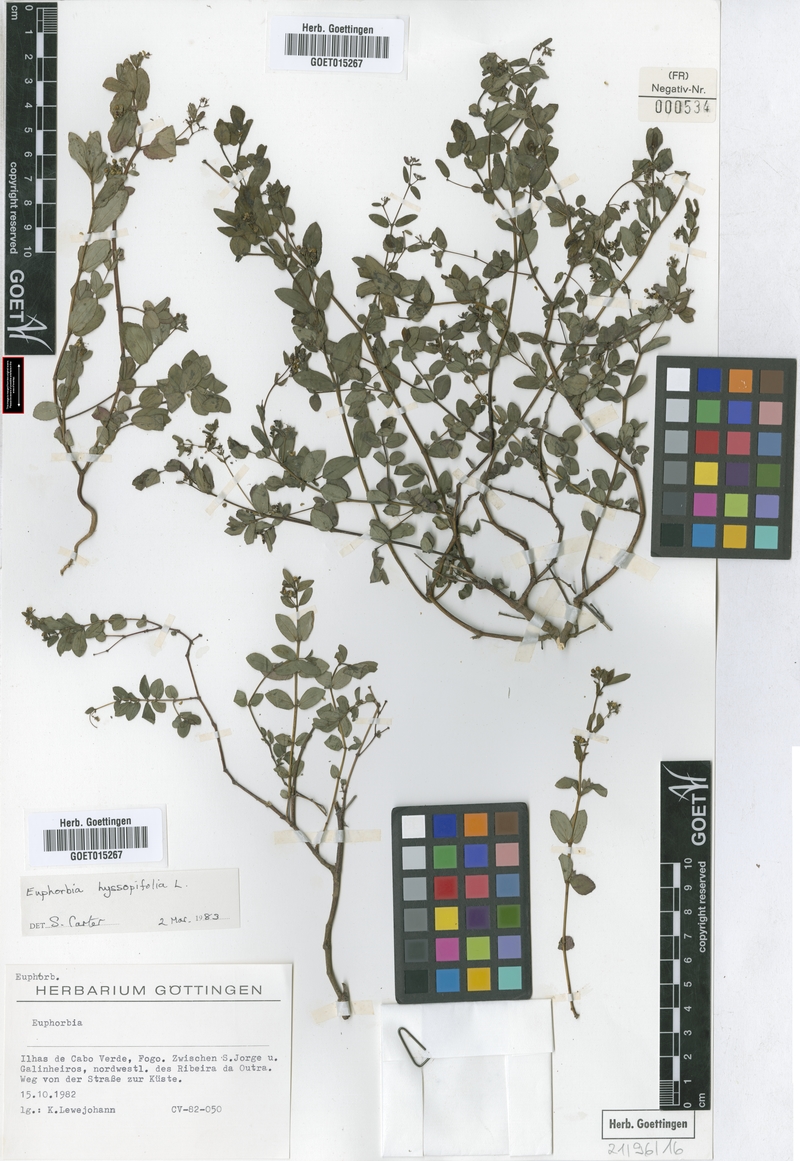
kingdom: Plantae
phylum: Tracheophyta
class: Magnoliopsida
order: Malpighiales
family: Euphorbiaceae
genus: Euphorbia
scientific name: Euphorbia hyssopifolia
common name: Hyssopleaf sandmat
